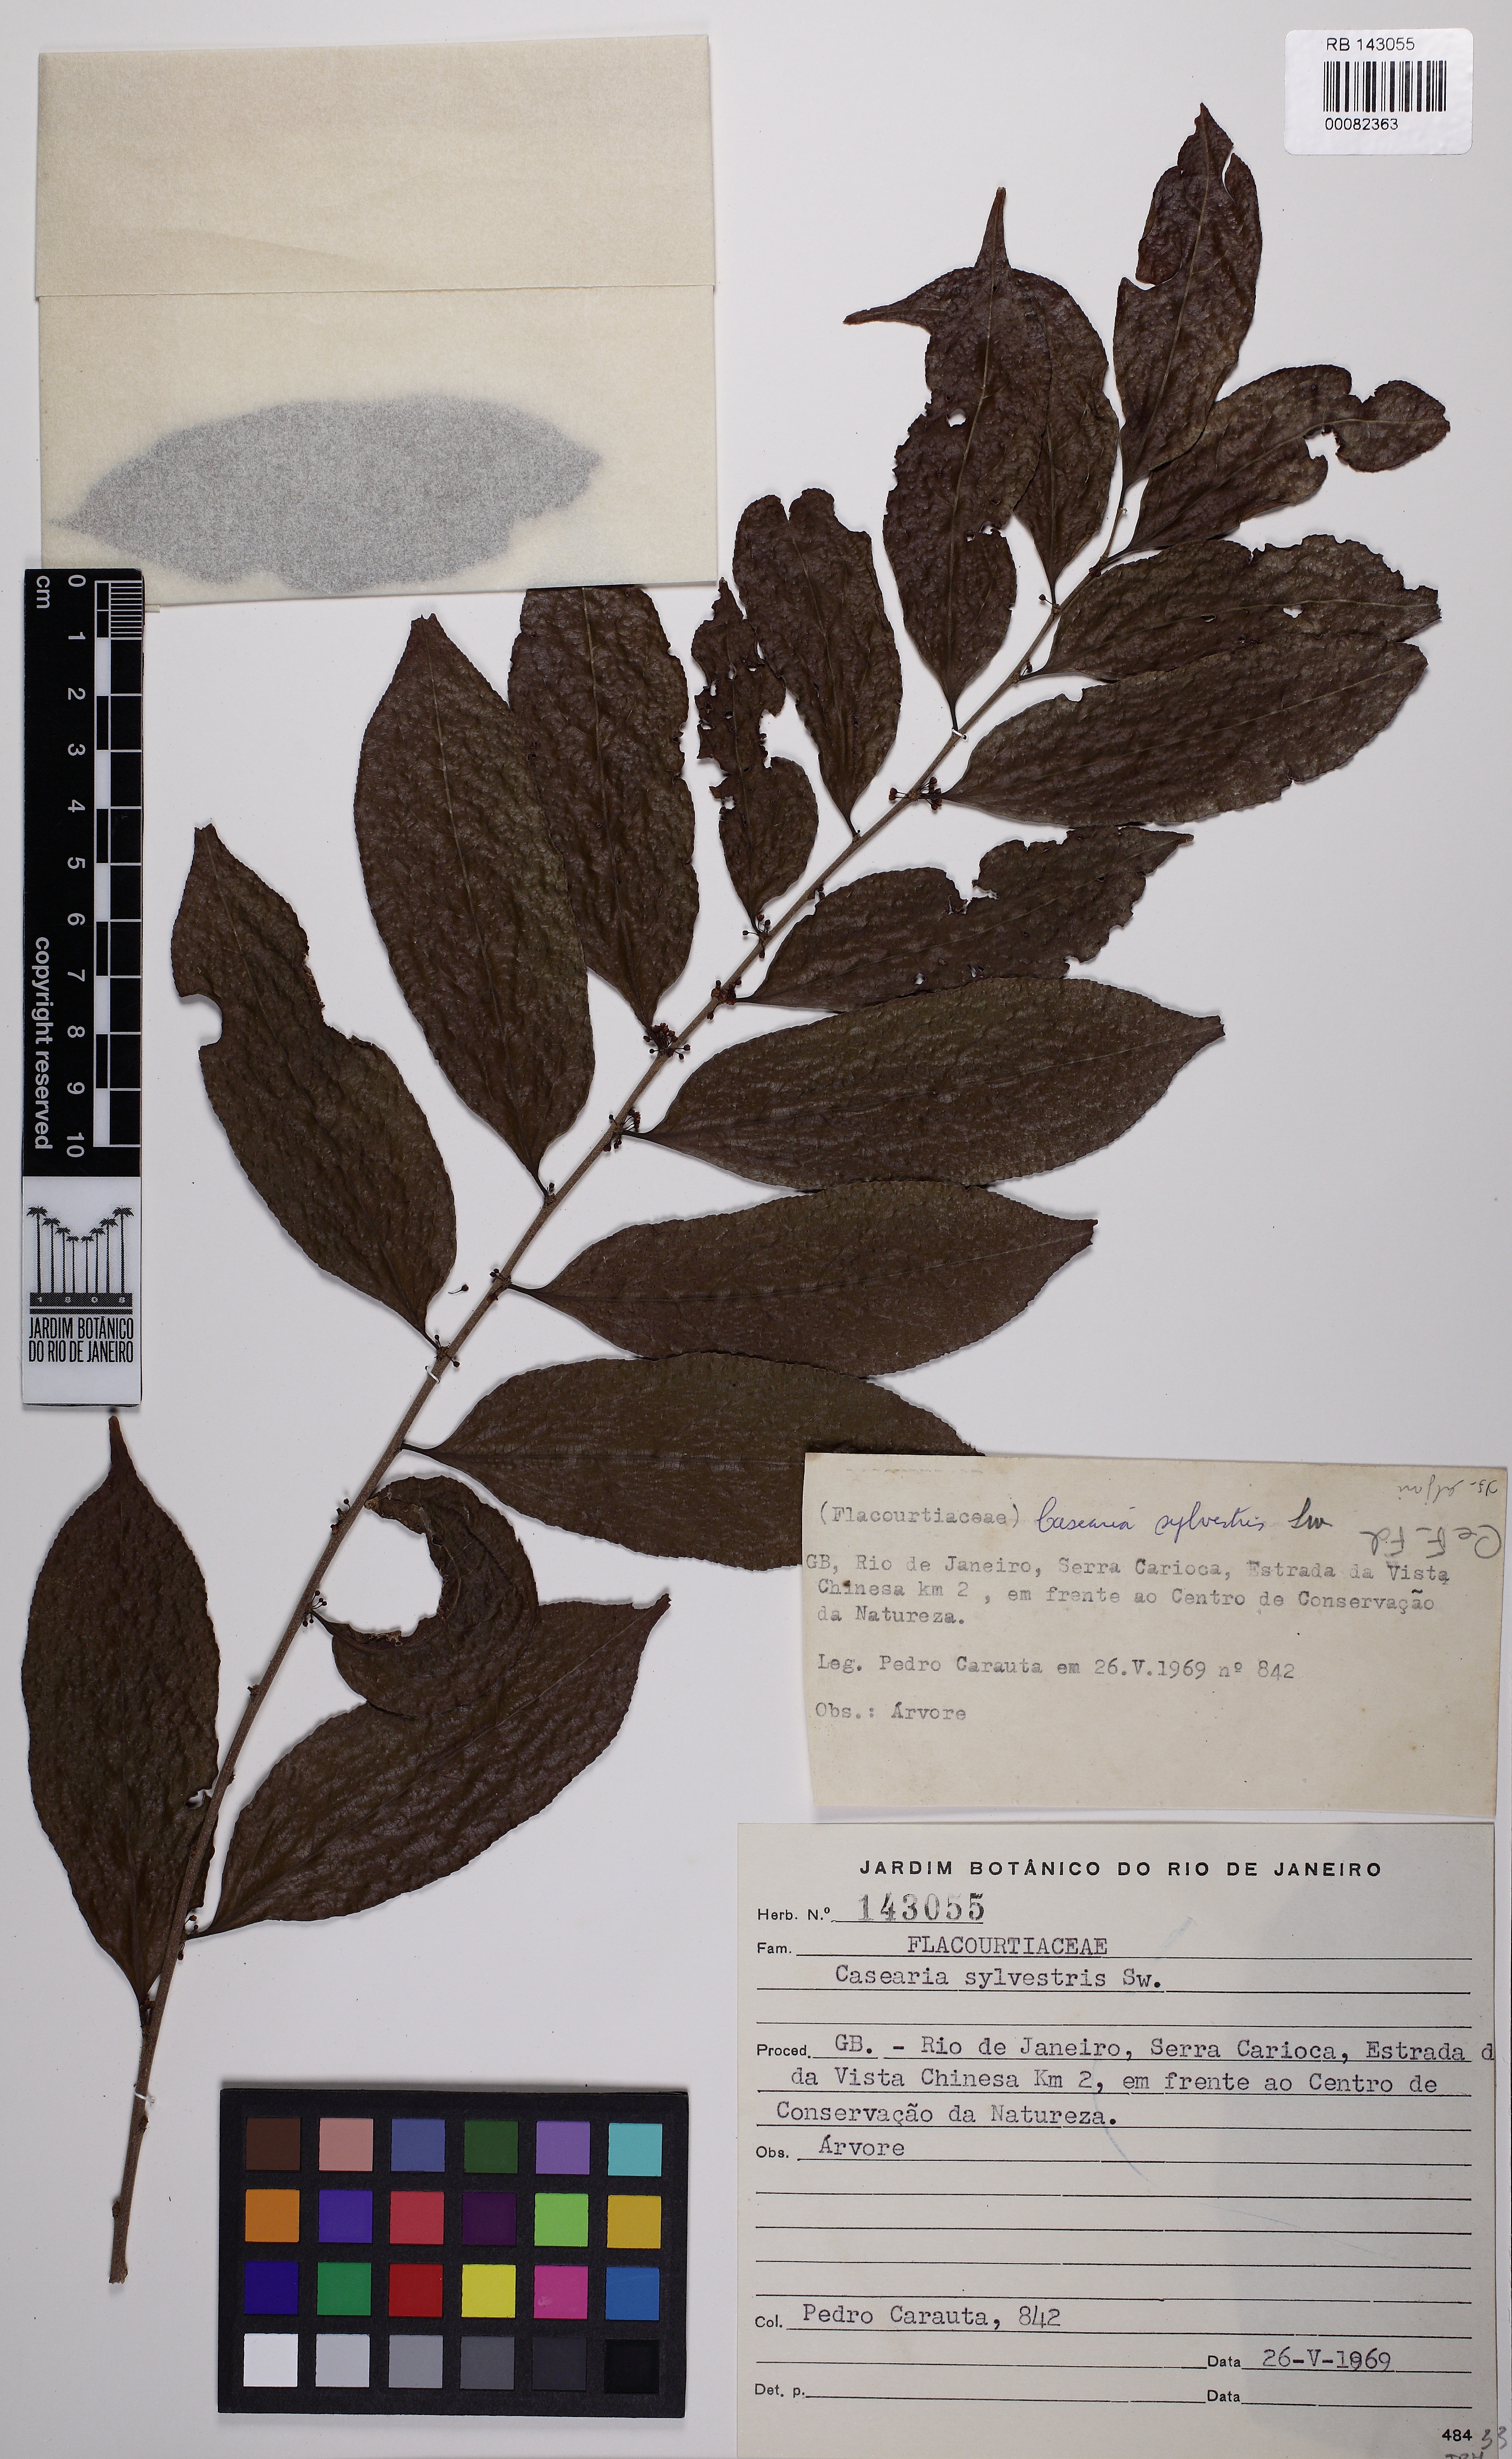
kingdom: Plantae
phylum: Tracheophyta
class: Magnoliopsida
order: Malpighiales
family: Salicaceae
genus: Casearia
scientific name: Casearia sylvestris
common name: Wild sage
